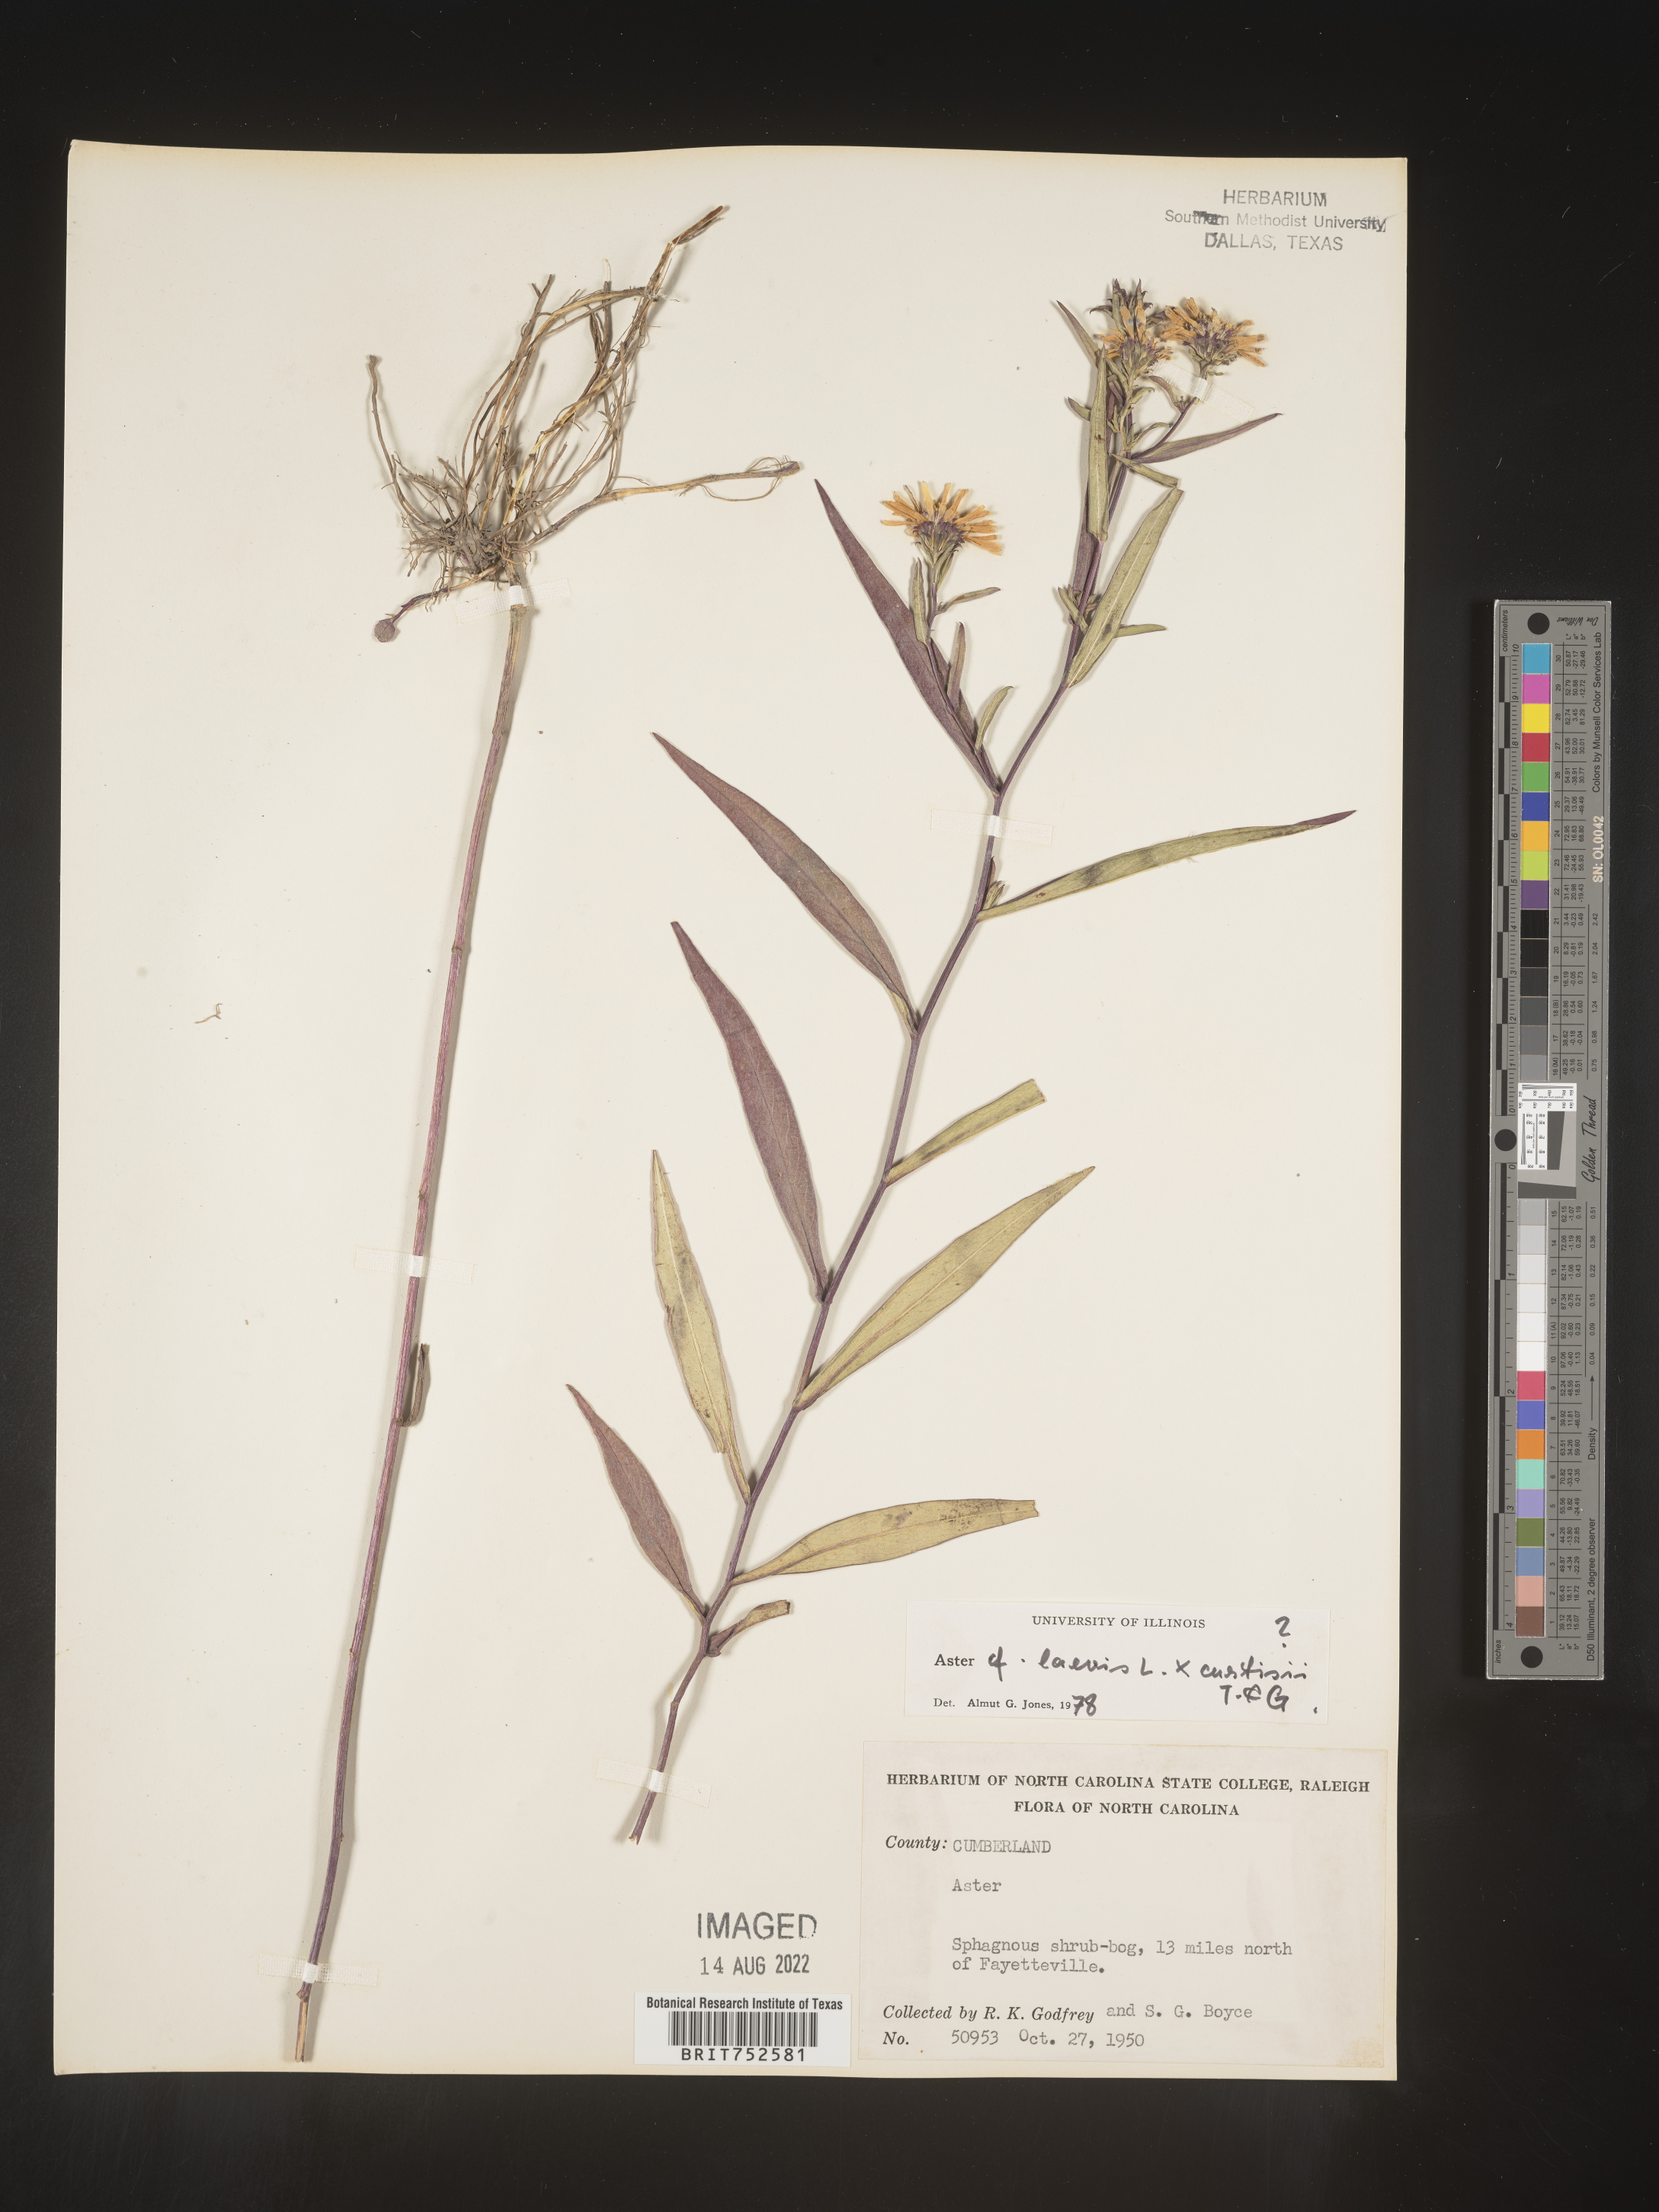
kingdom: Plantae
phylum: Tracheophyta
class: Magnoliopsida
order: Asterales
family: Asteraceae
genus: Symphyotrichum
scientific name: Symphyotrichum laeve
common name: Glaucous aster
